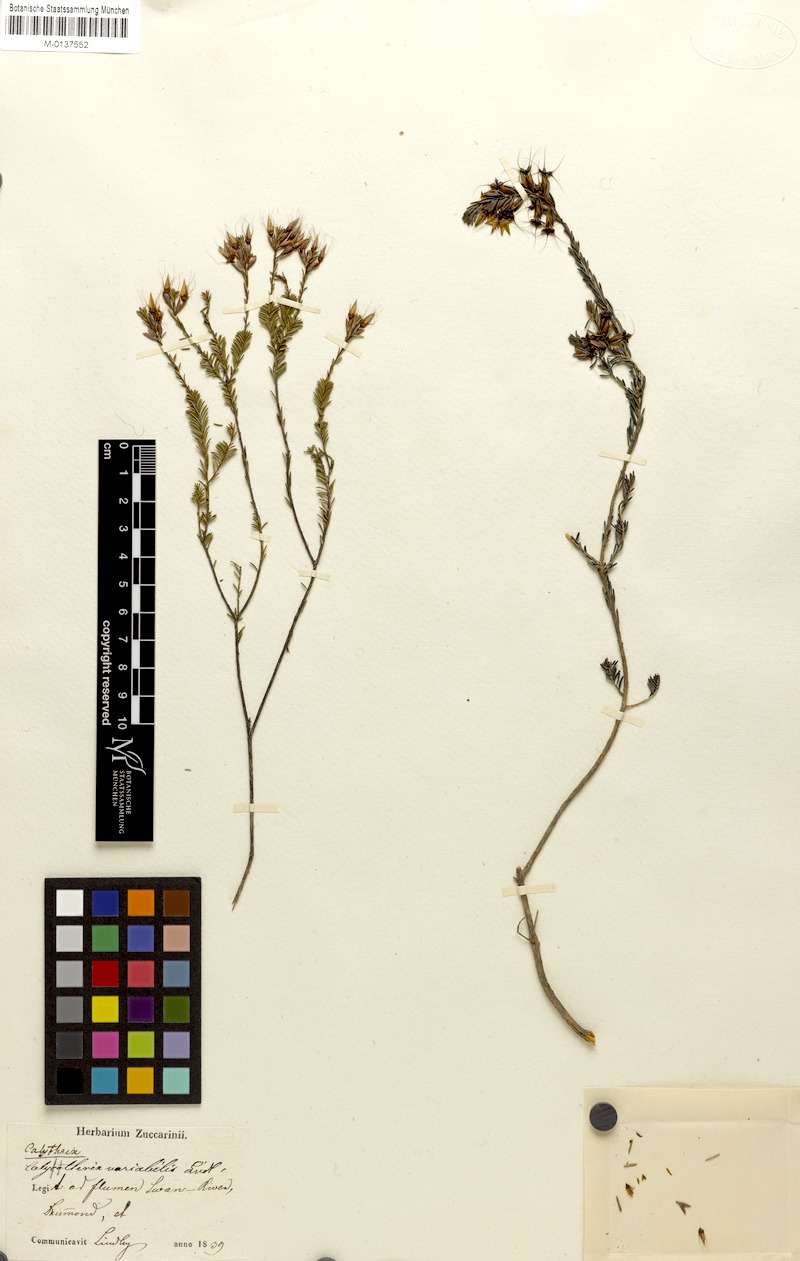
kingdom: Plantae
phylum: Tracheophyta
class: Magnoliopsida
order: Myrtales
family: Myrtaceae
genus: Calytrix
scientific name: Calytrix variabilis
